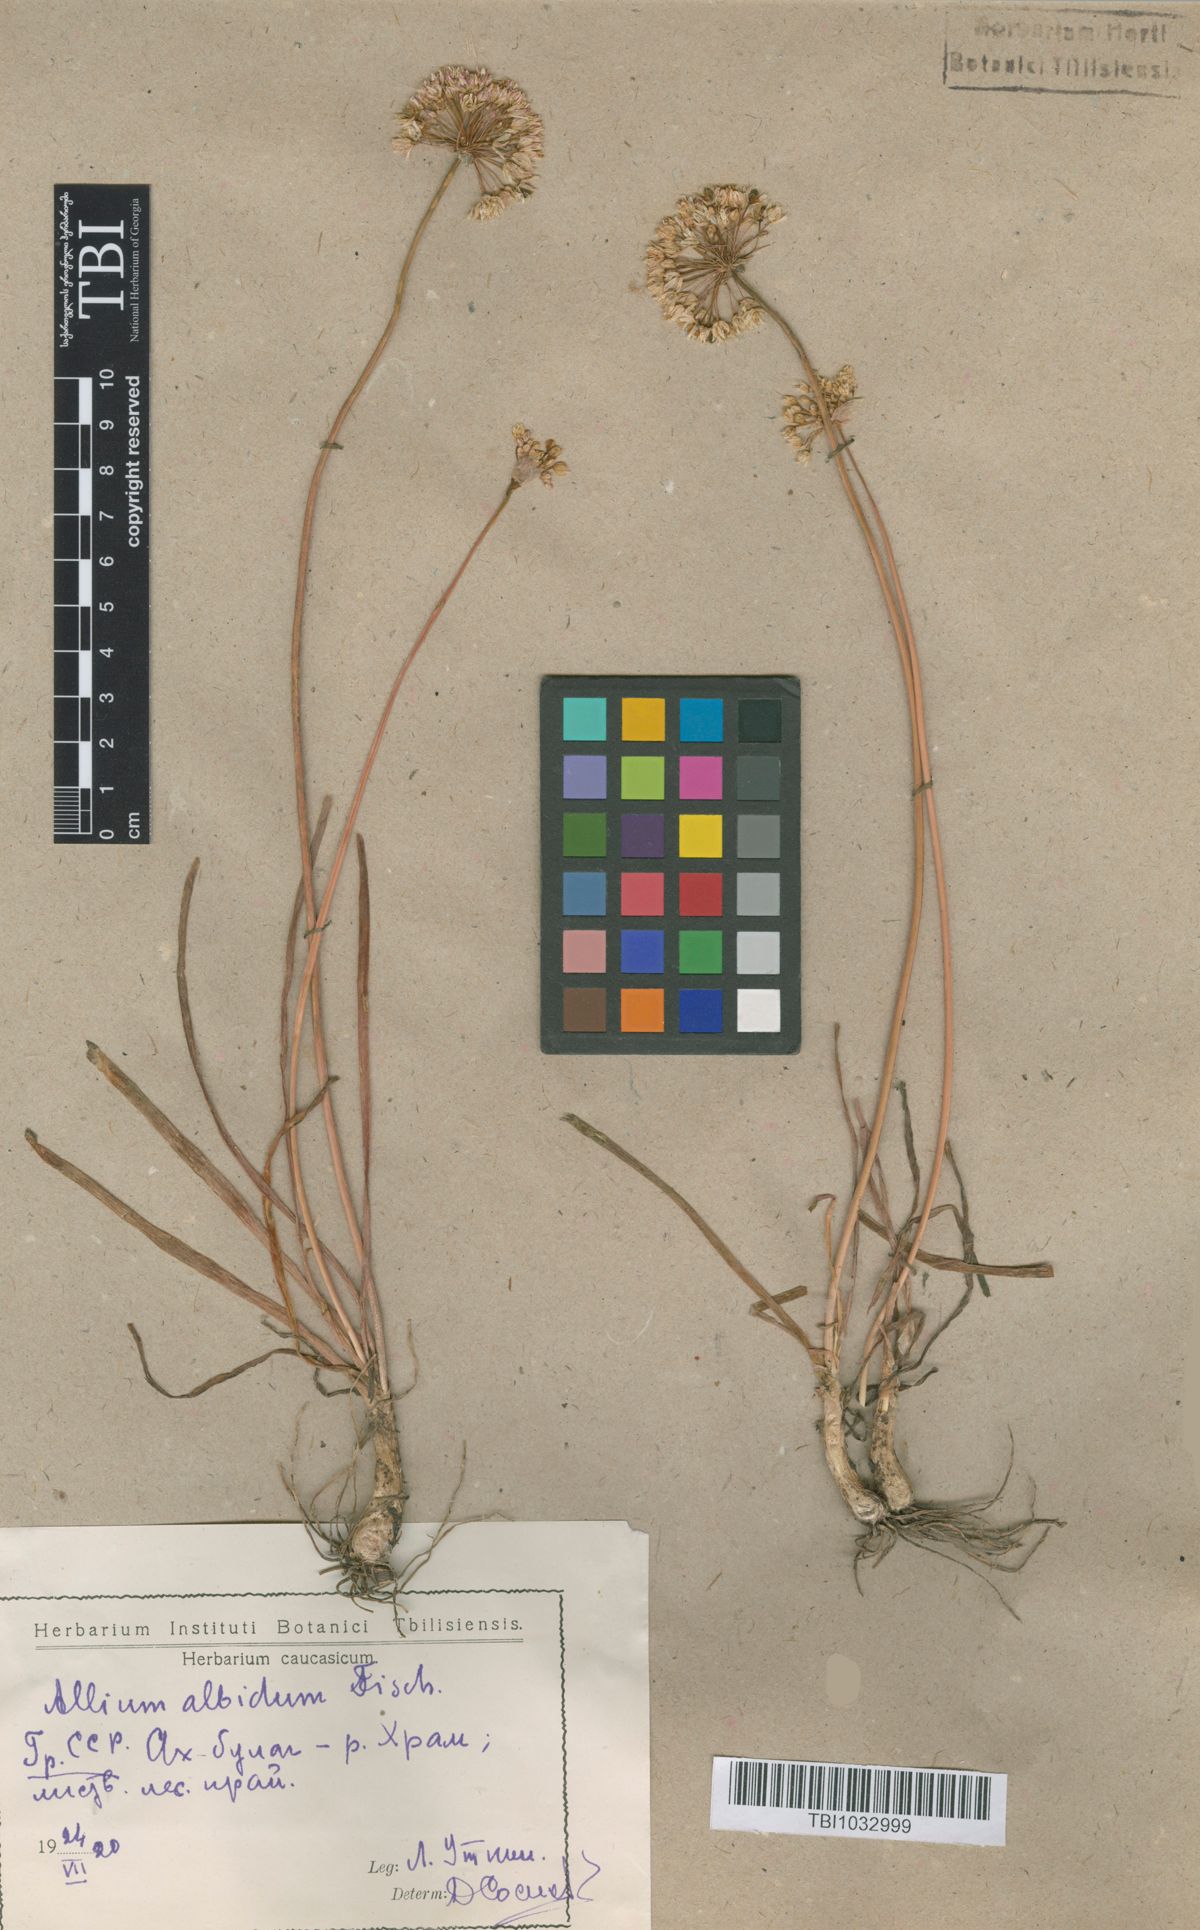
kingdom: Plantae
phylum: Tracheophyta
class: Liliopsida
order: Asparagales
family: Amaryllidaceae
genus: Allium
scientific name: Allium denudatum
